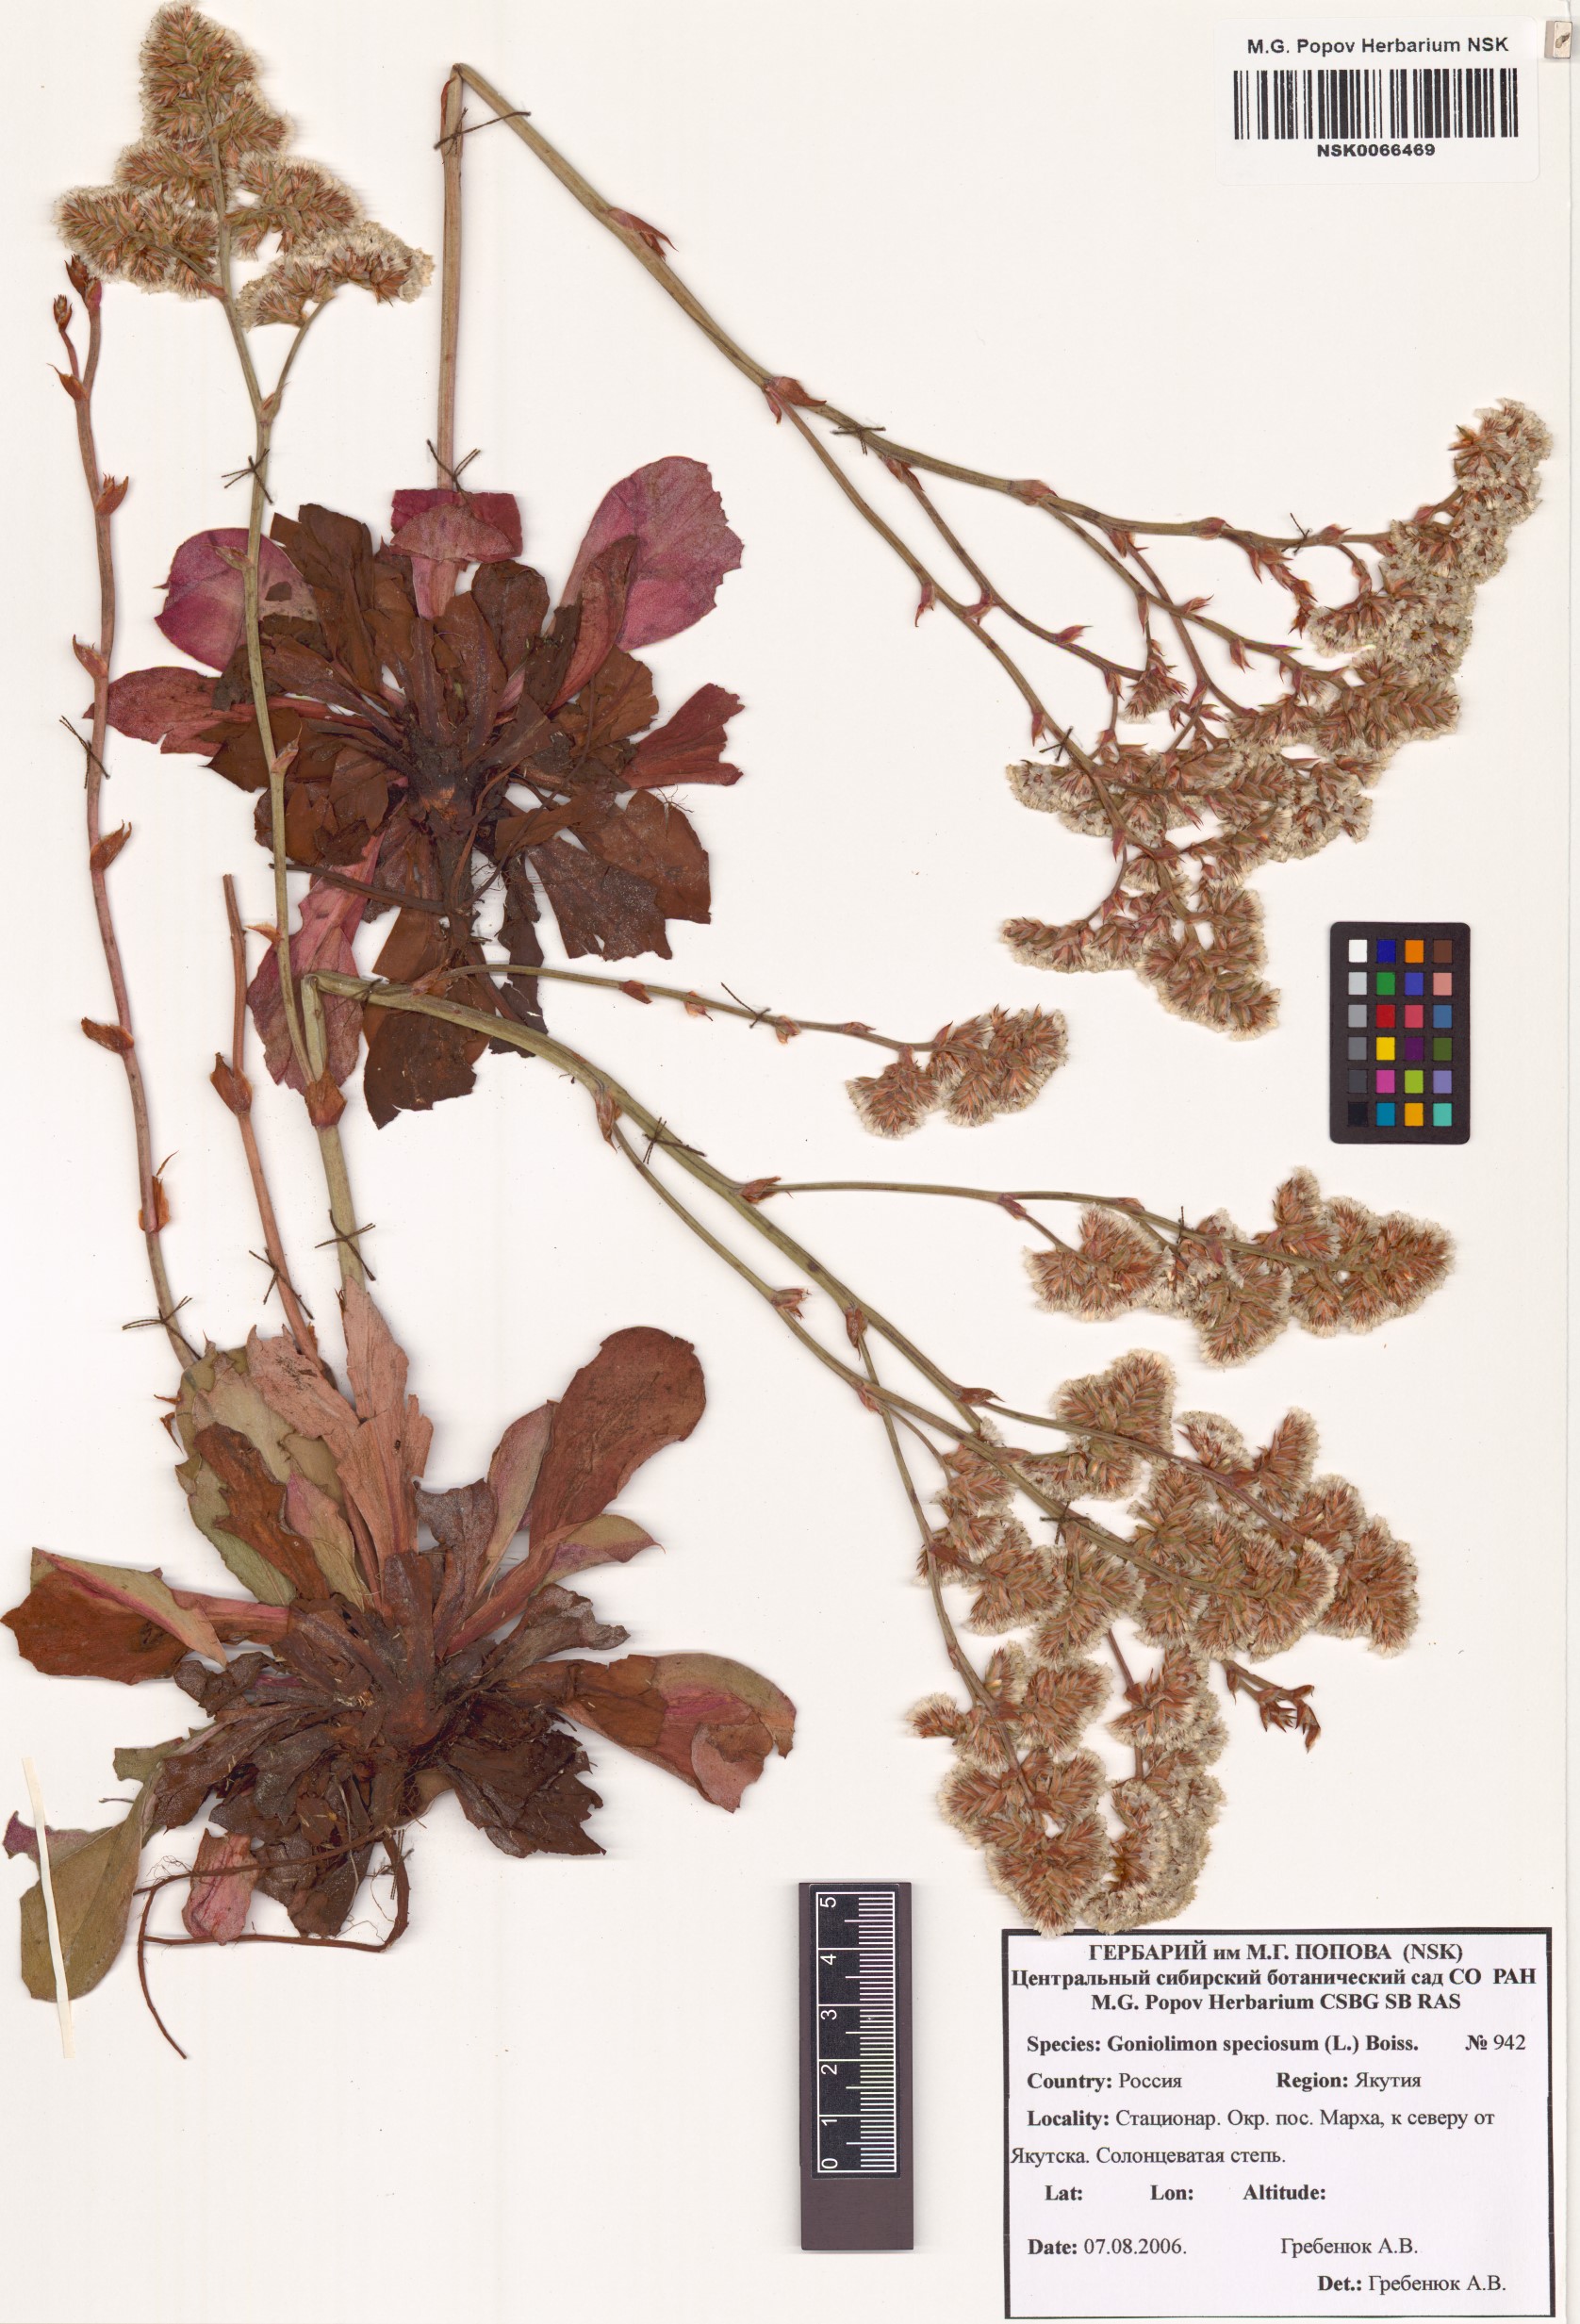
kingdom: Plantae
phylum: Tracheophyta
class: Magnoliopsida
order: Caryophyllales
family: Plumbaginaceae
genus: Goniolimon
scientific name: Goniolimon speciosum
